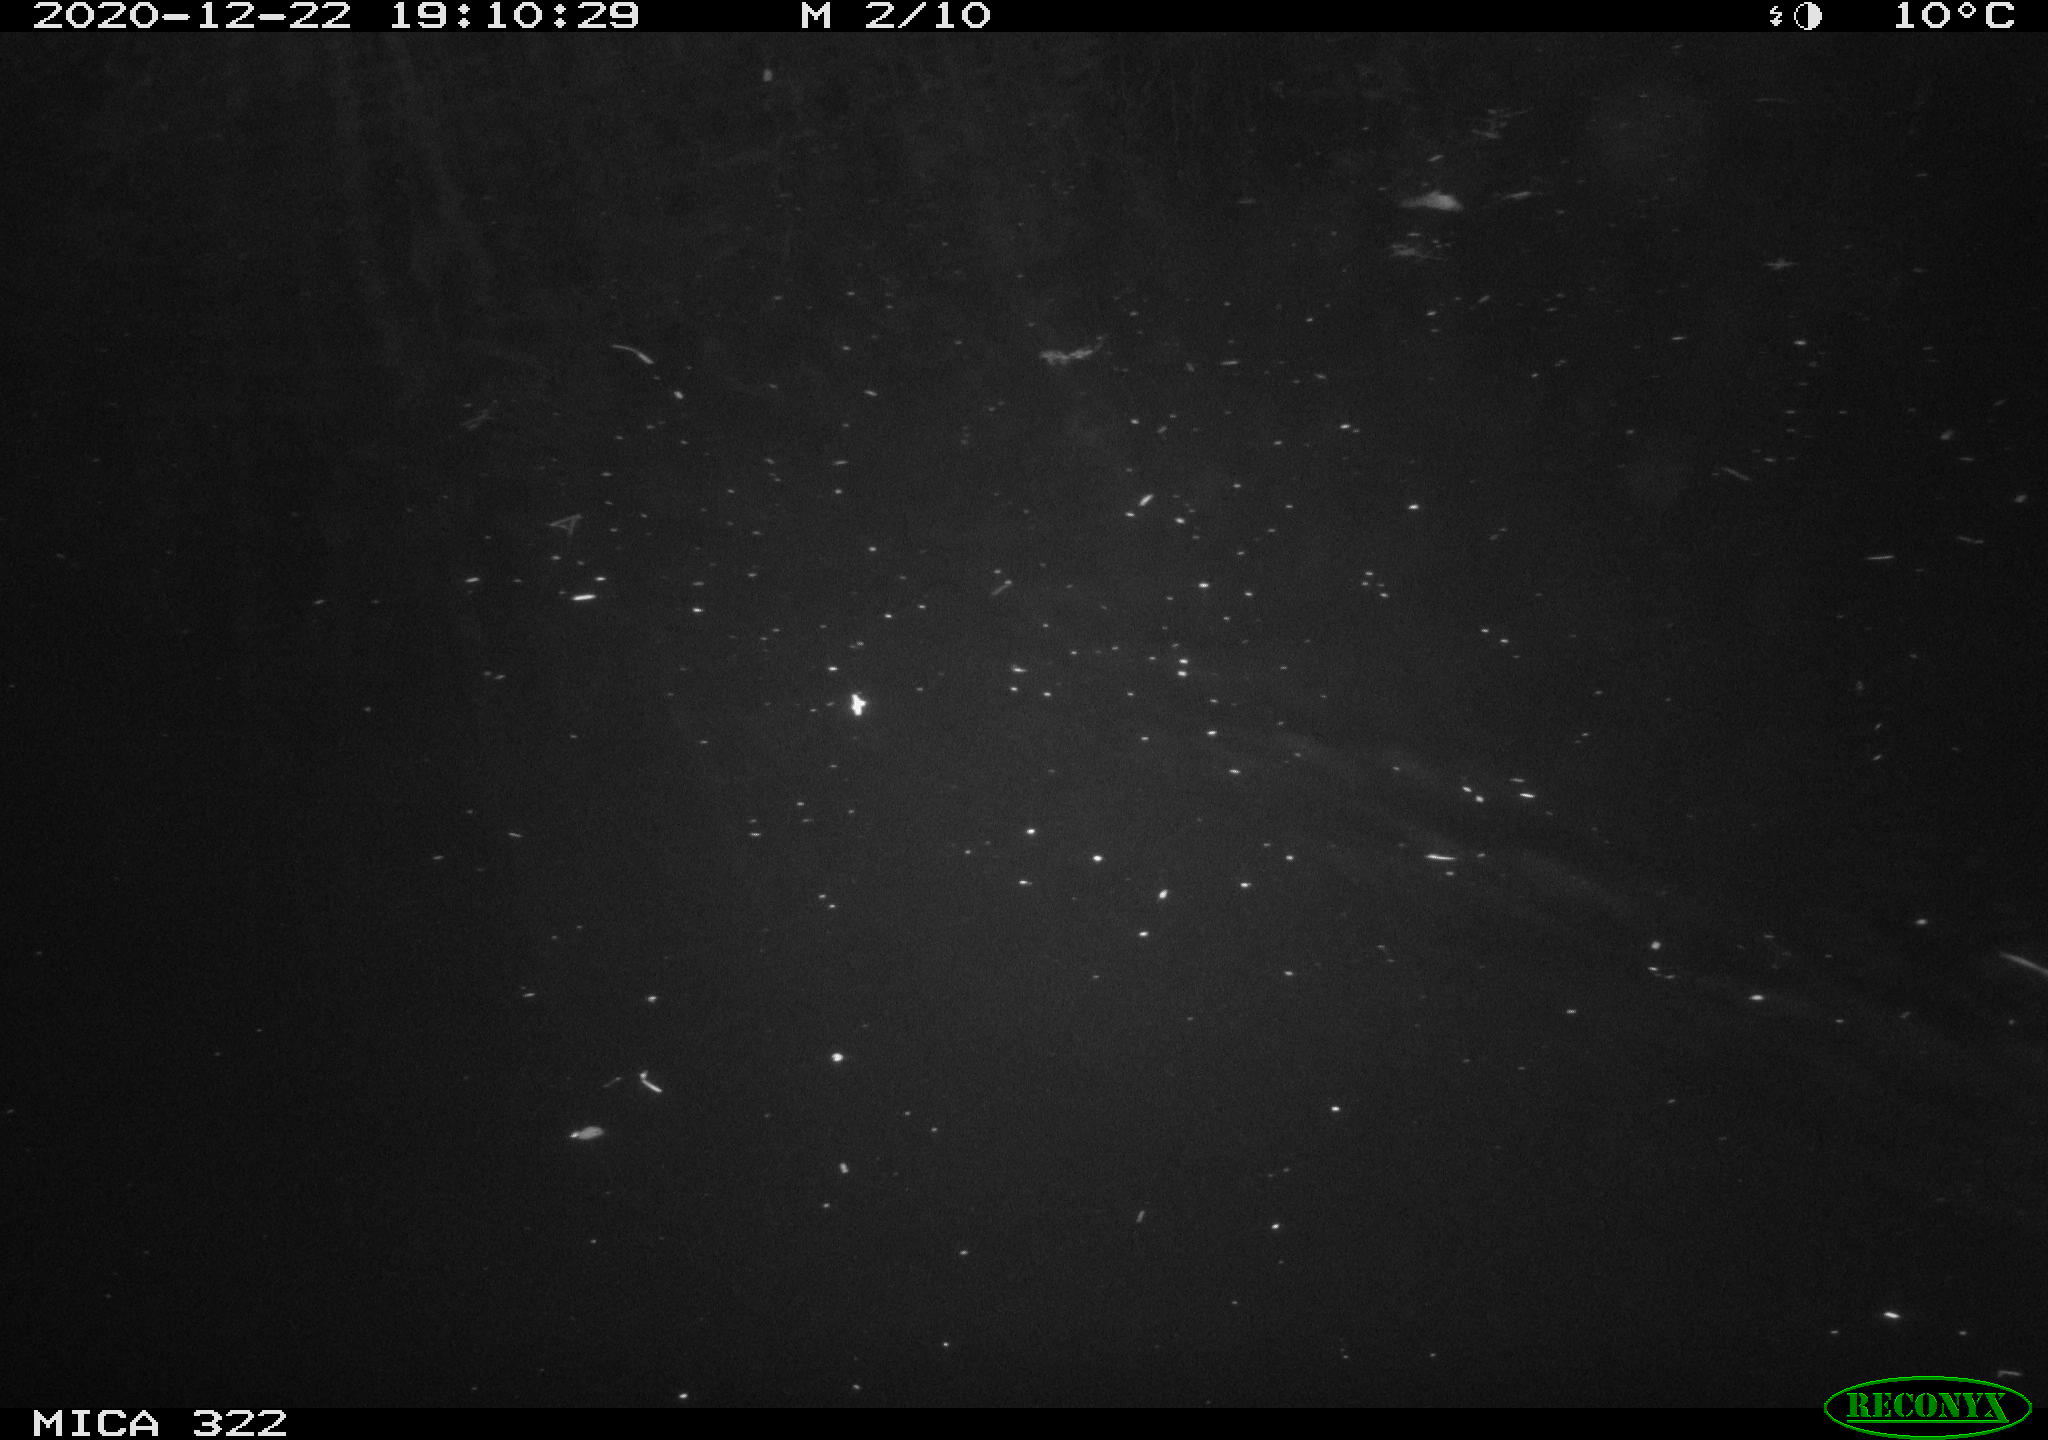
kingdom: Animalia
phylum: Chordata
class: Mammalia
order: Rodentia
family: Muridae
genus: Rattus
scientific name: Rattus norvegicus
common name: Brown rat
